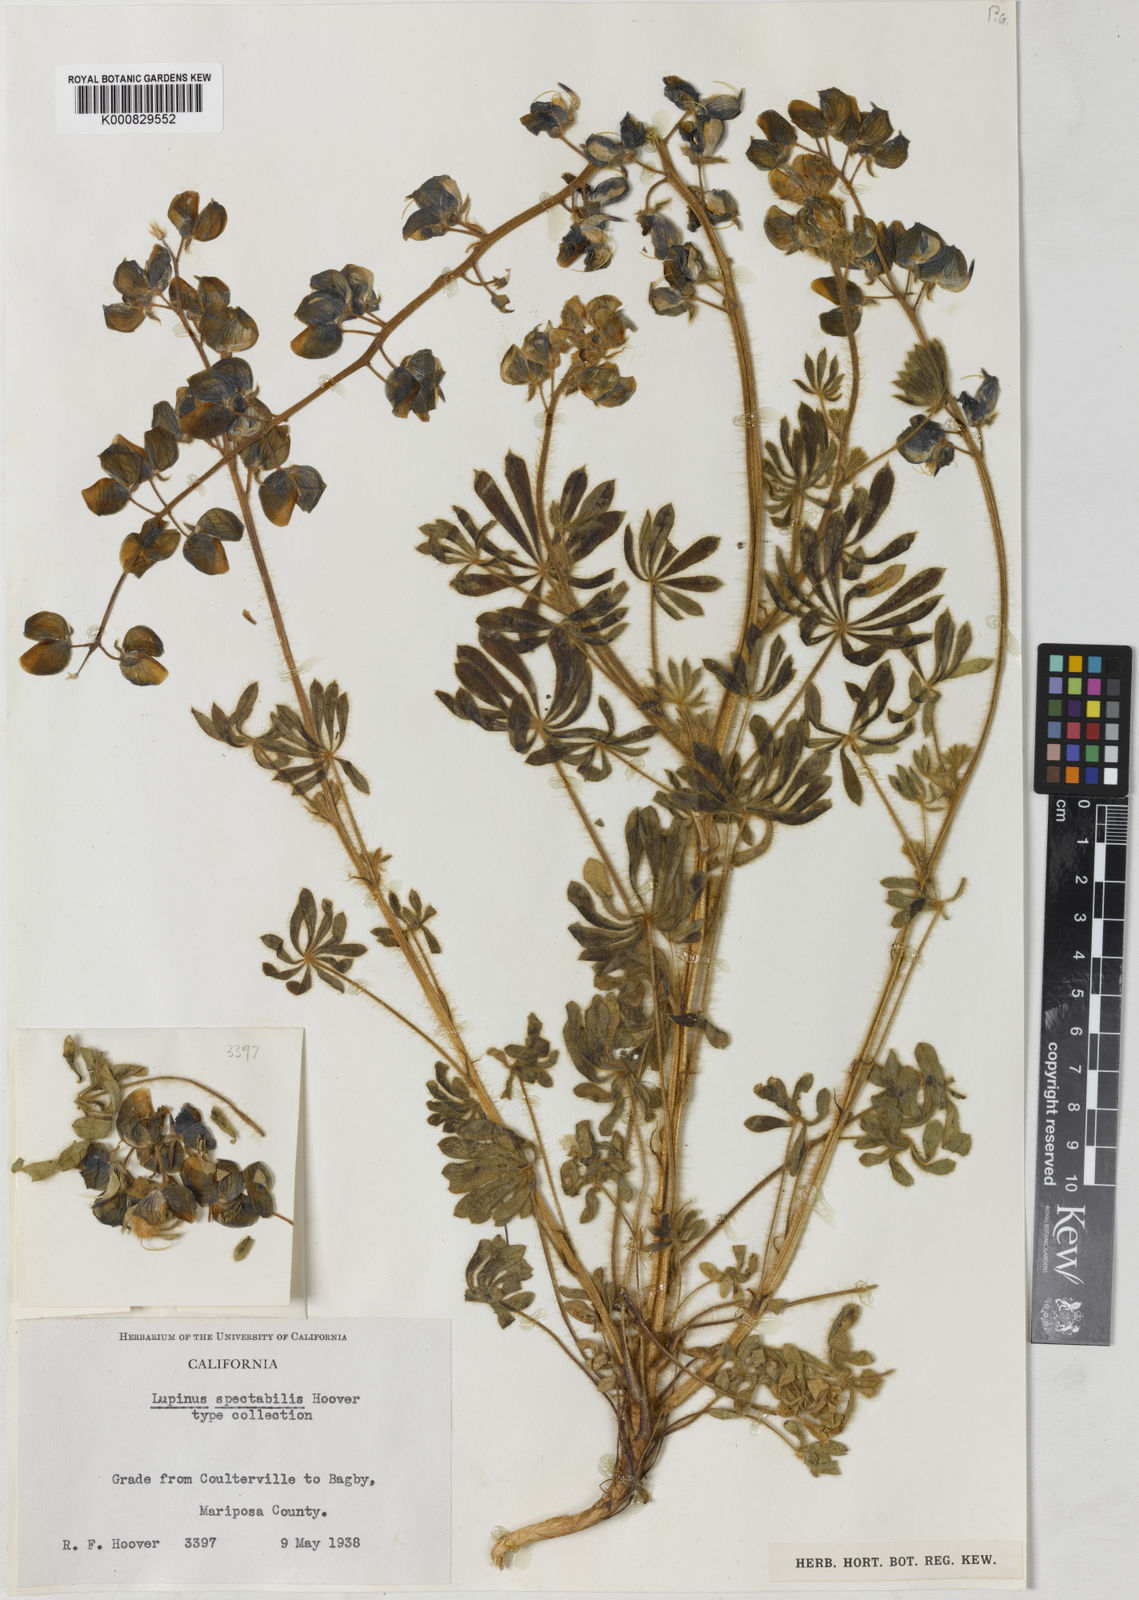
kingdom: Plantae
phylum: Tracheophyta
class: Magnoliopsida
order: Fabales
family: Fabaceae
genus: Lupinus
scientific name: Lupinus spectabilis
